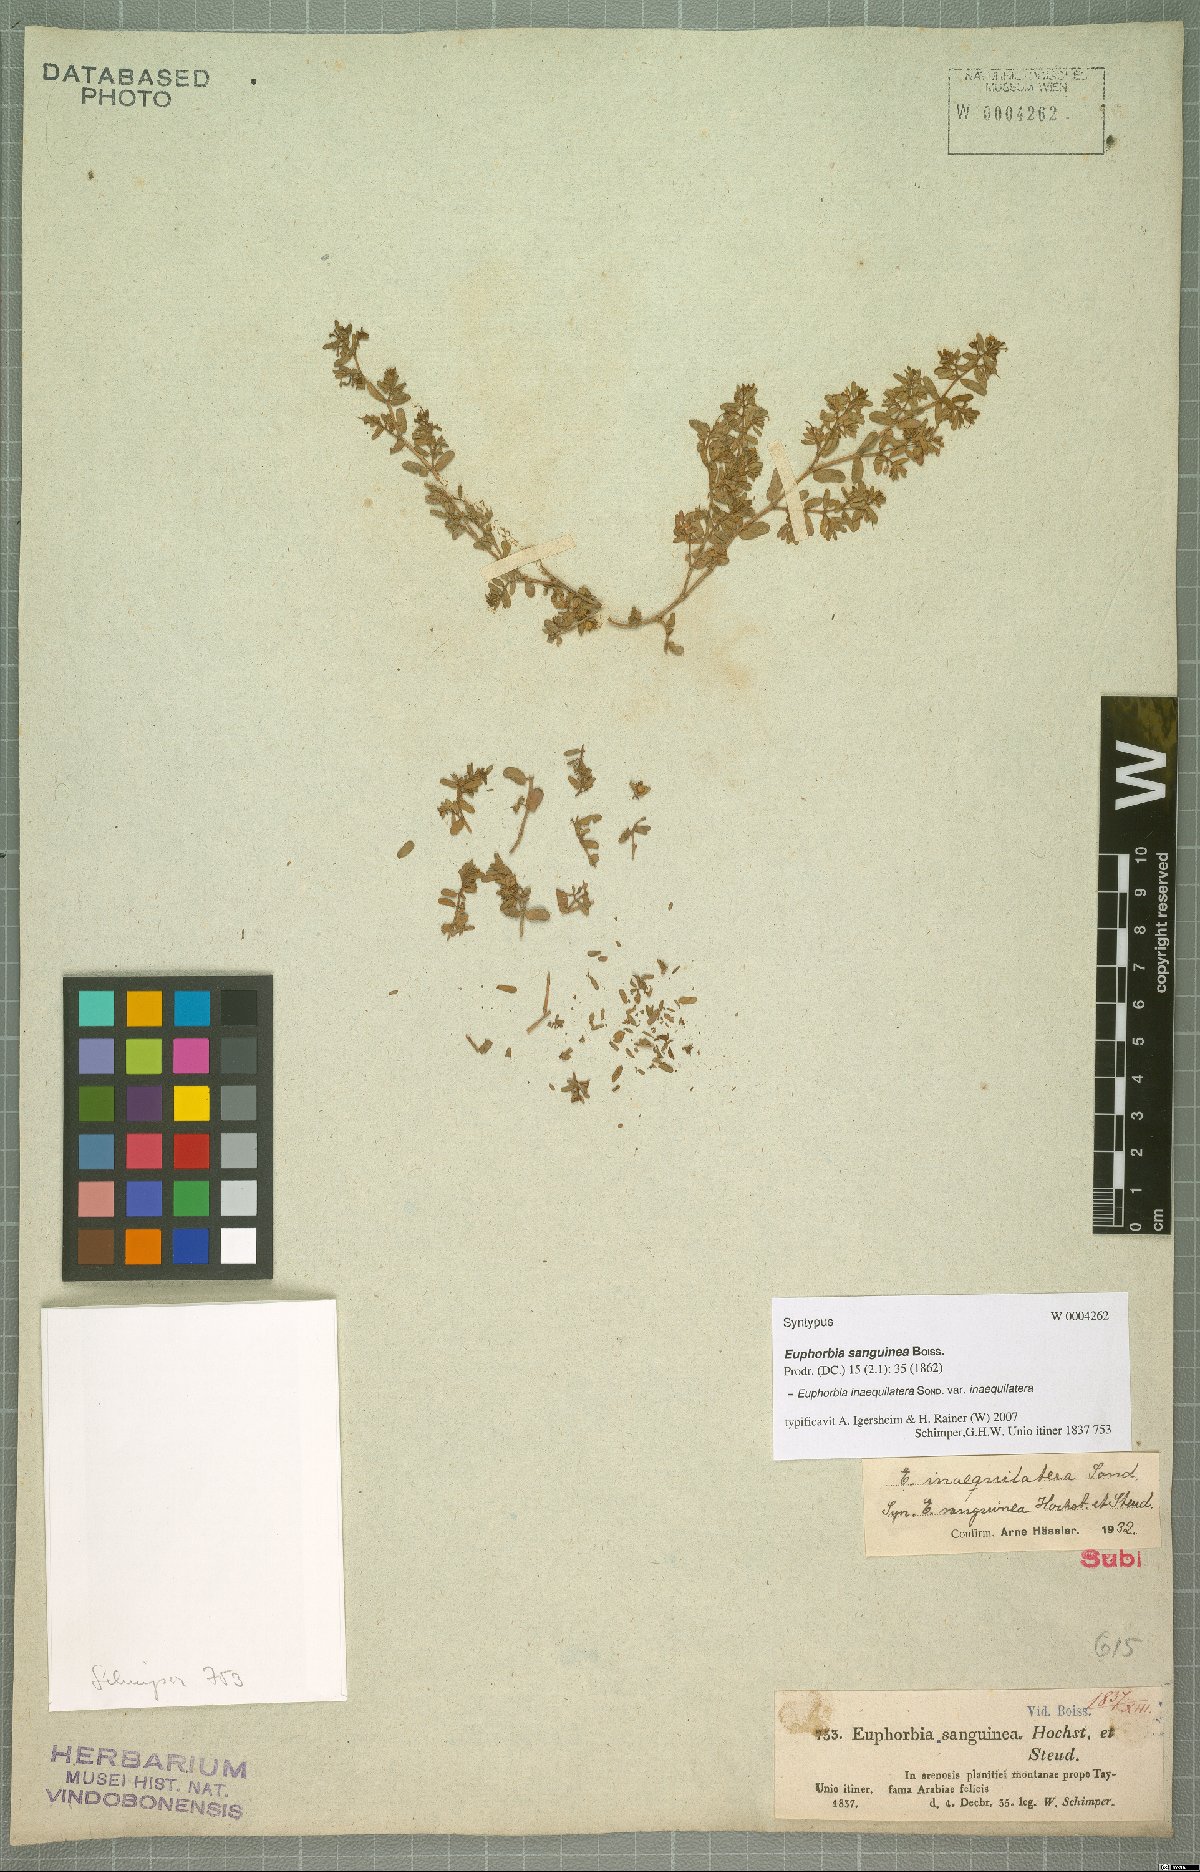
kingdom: Plantae
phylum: Tracheophyta
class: Magnoliopsida
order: Malpighiales
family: Euphorbiaceae
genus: Euphorbia
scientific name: Euphorbia inaequilatera
